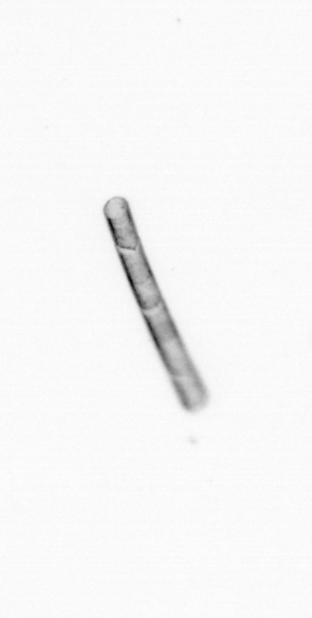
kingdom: Chromista
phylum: Ochrophyta
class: Bacillariophyceae
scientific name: Bacillariophyceae
